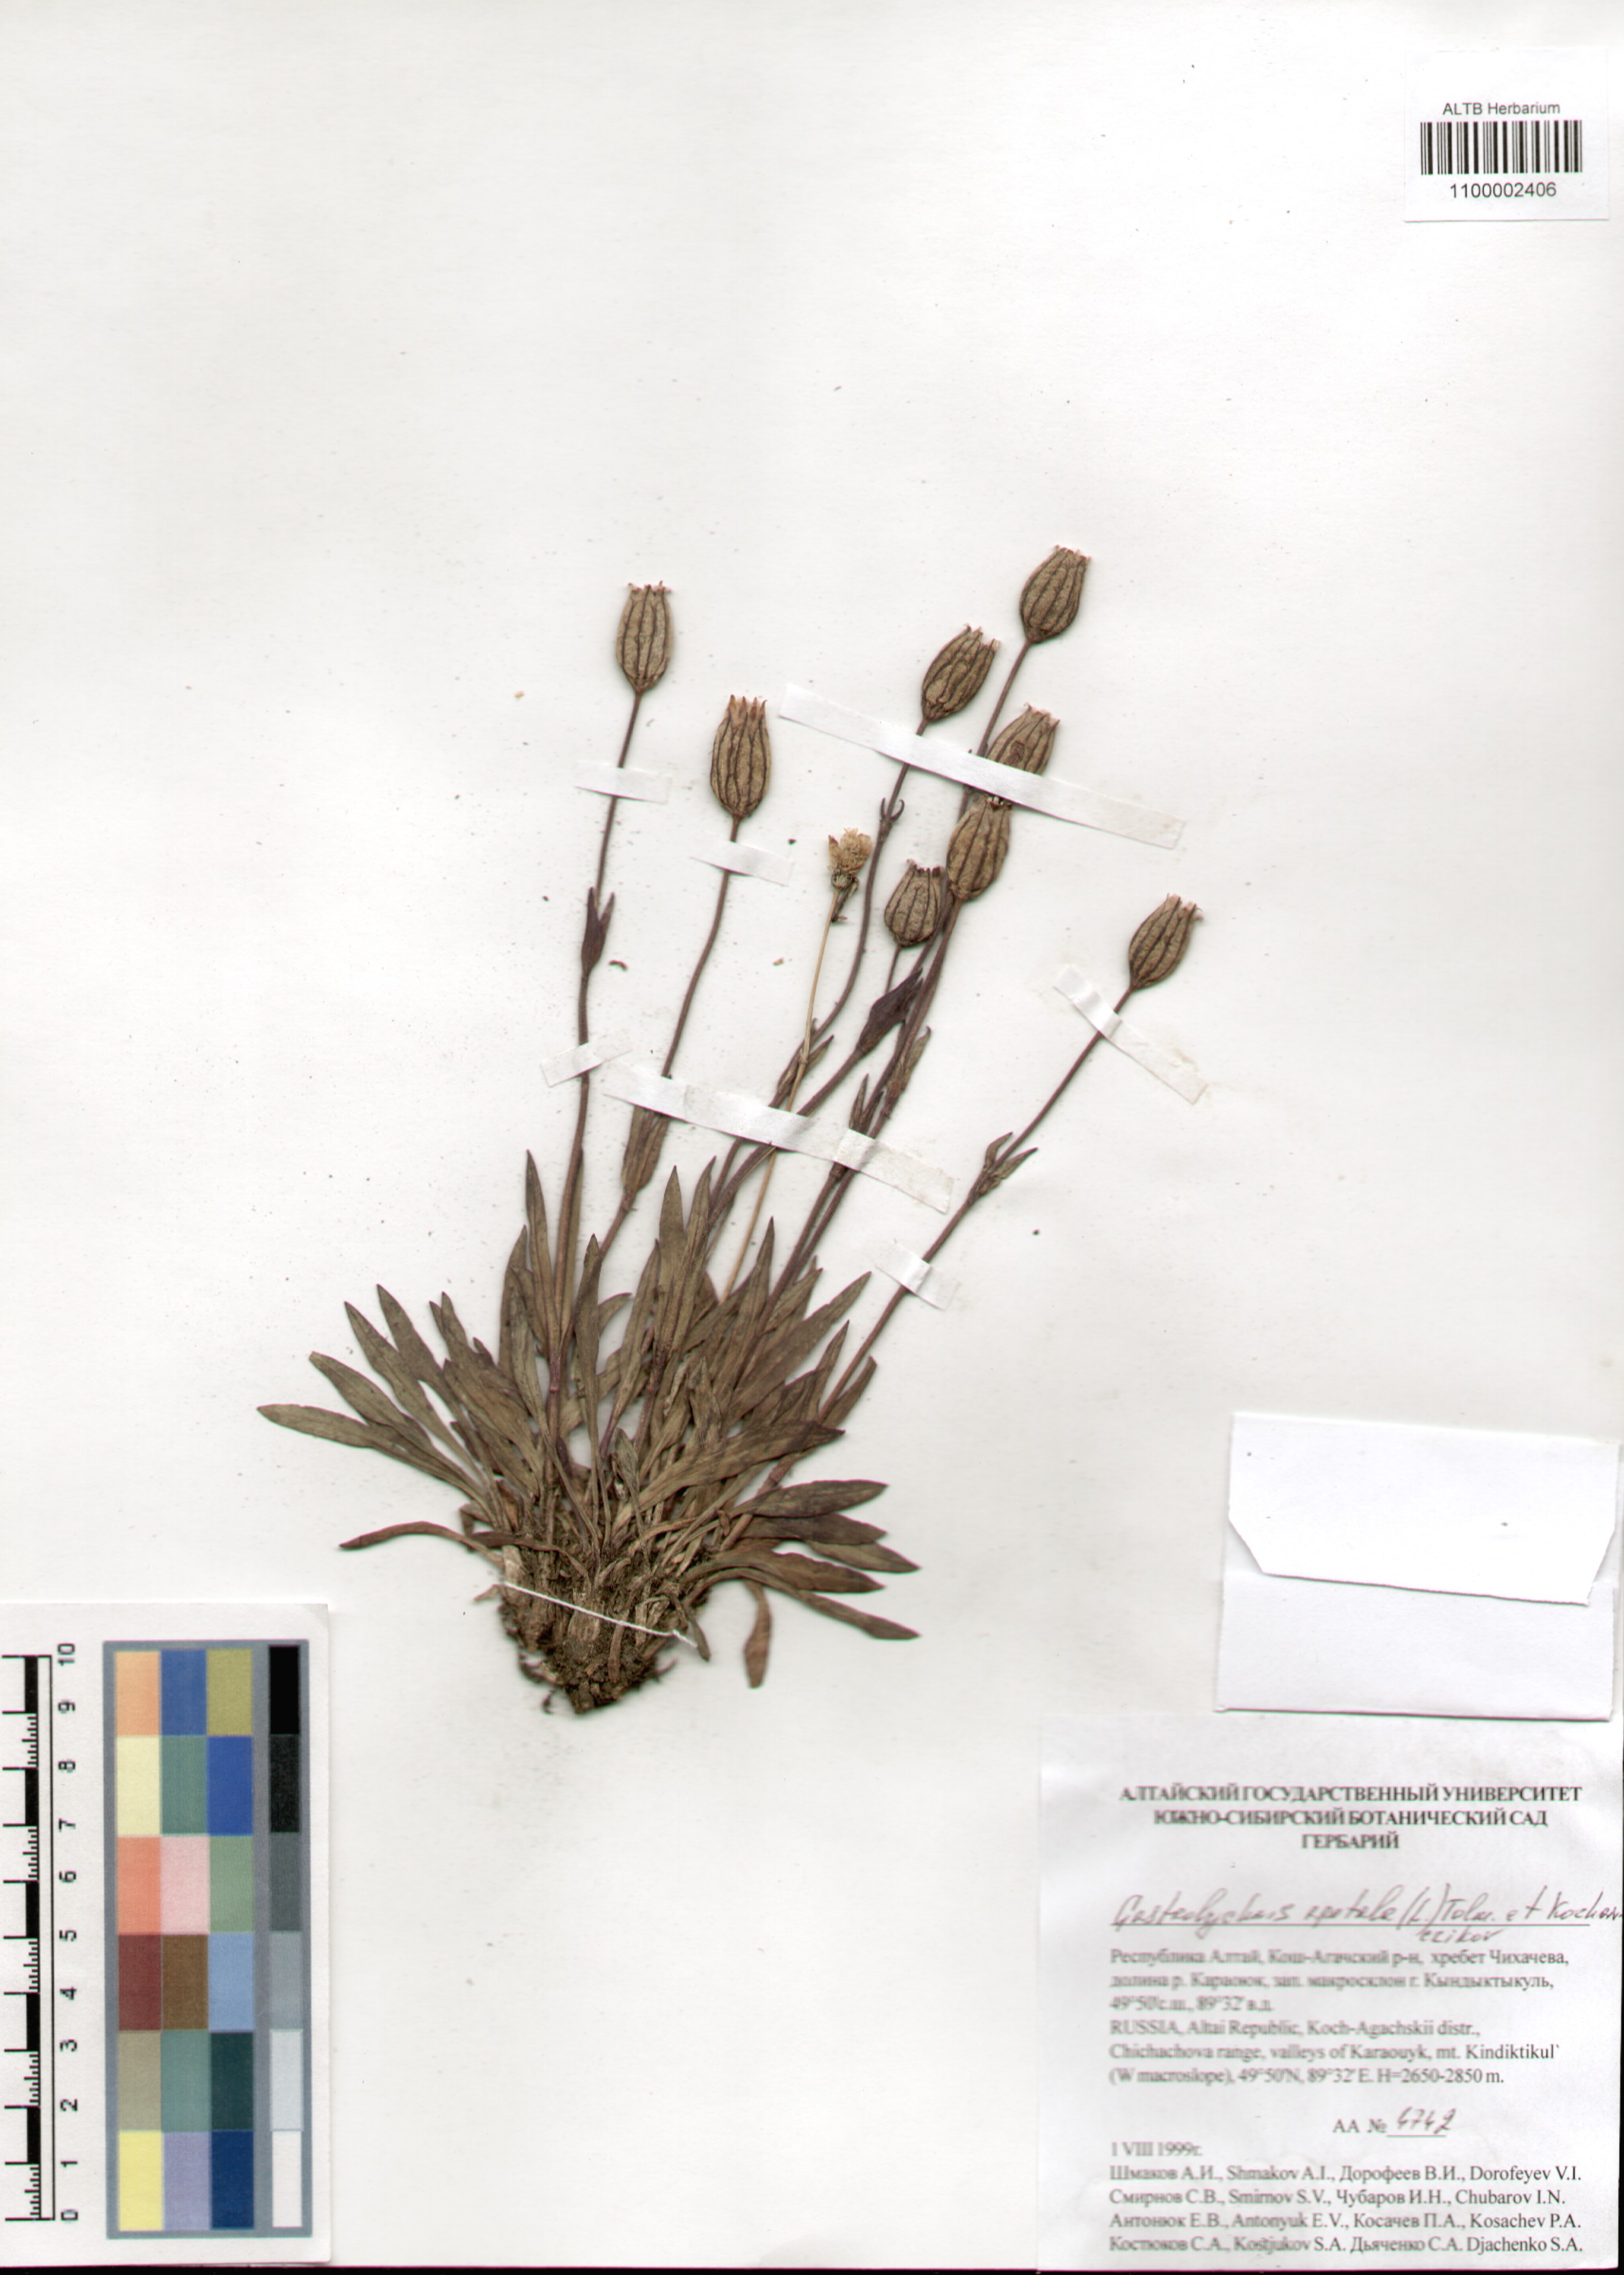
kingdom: Plantae
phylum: Tracheophyta
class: Magnoliopsida
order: Caryophyllales
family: Caryophyllaceae
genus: Silene
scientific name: Silene wahlbergella
